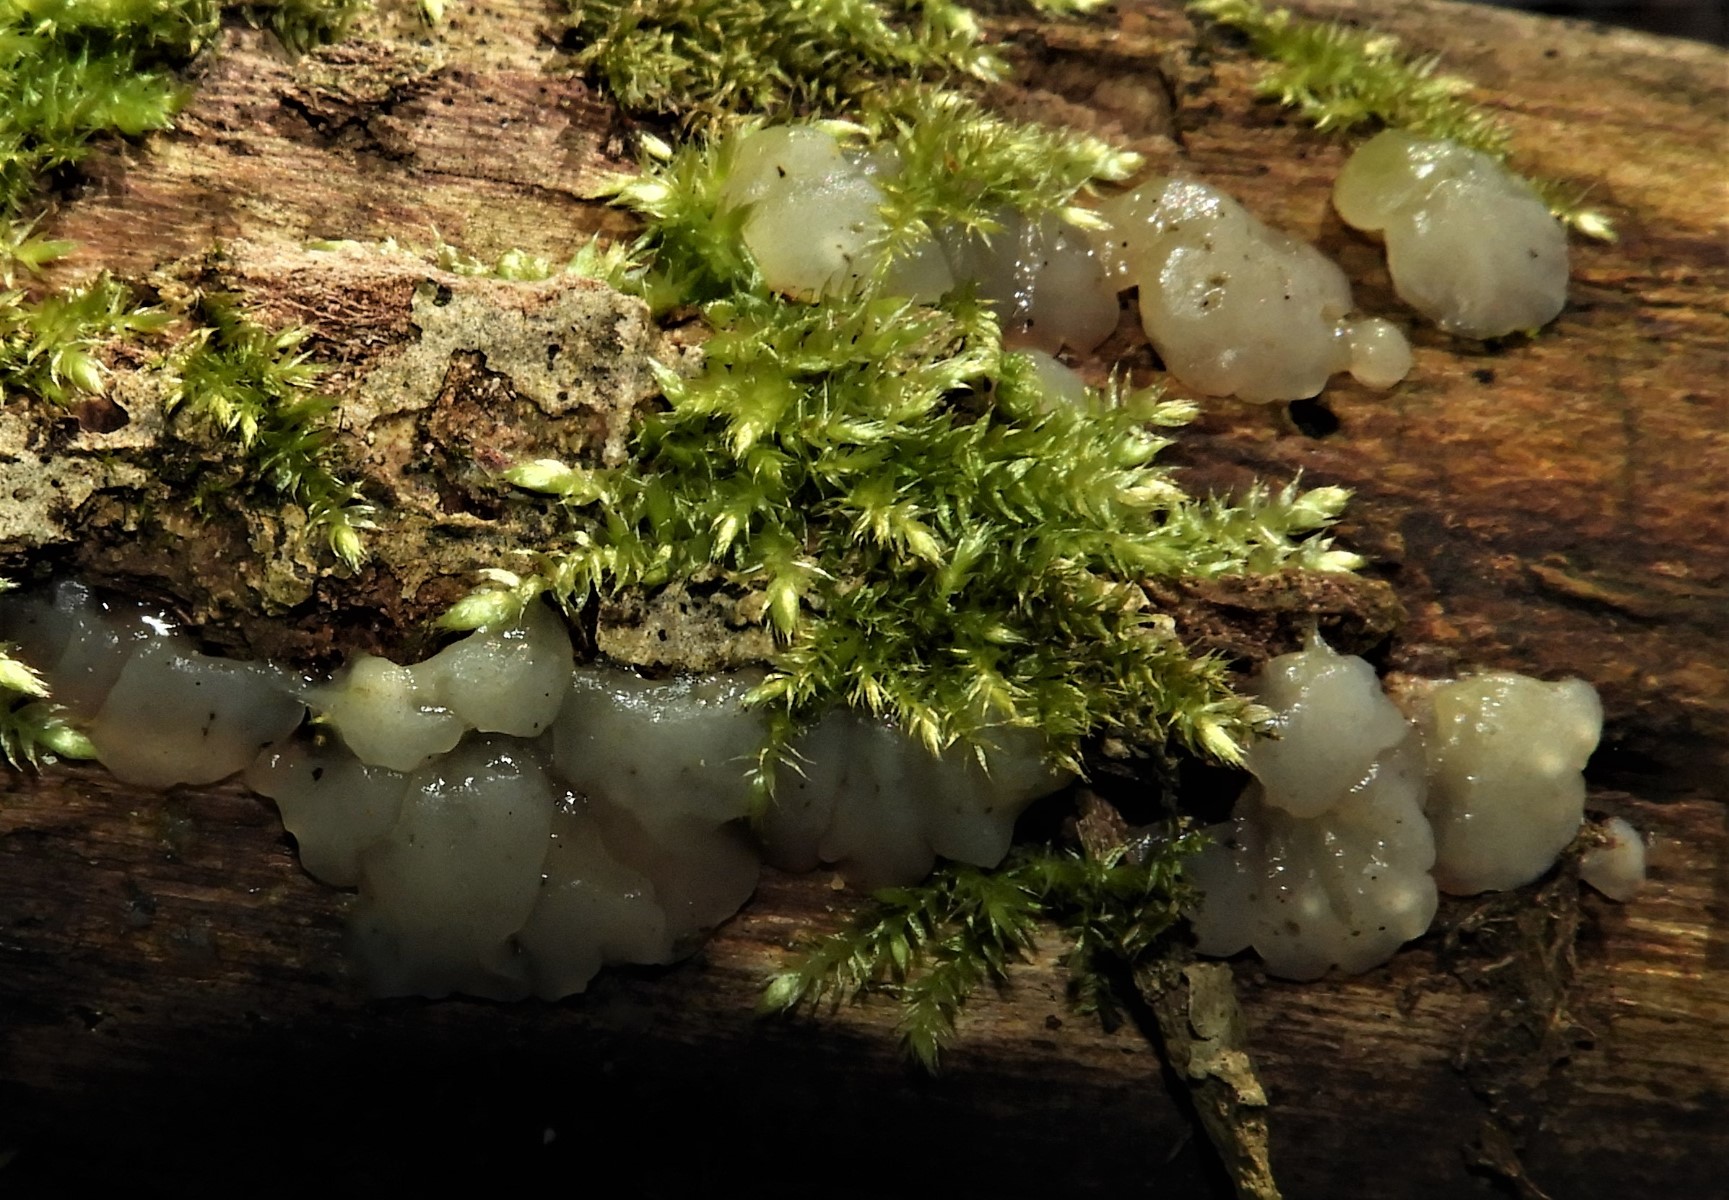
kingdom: Fungi
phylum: Basidiomycota
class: Agaricomycetes
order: Auriculariales
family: Hyaloriaceae
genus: Myxarium
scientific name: Myxarium nucleatum
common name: klar bævretop
